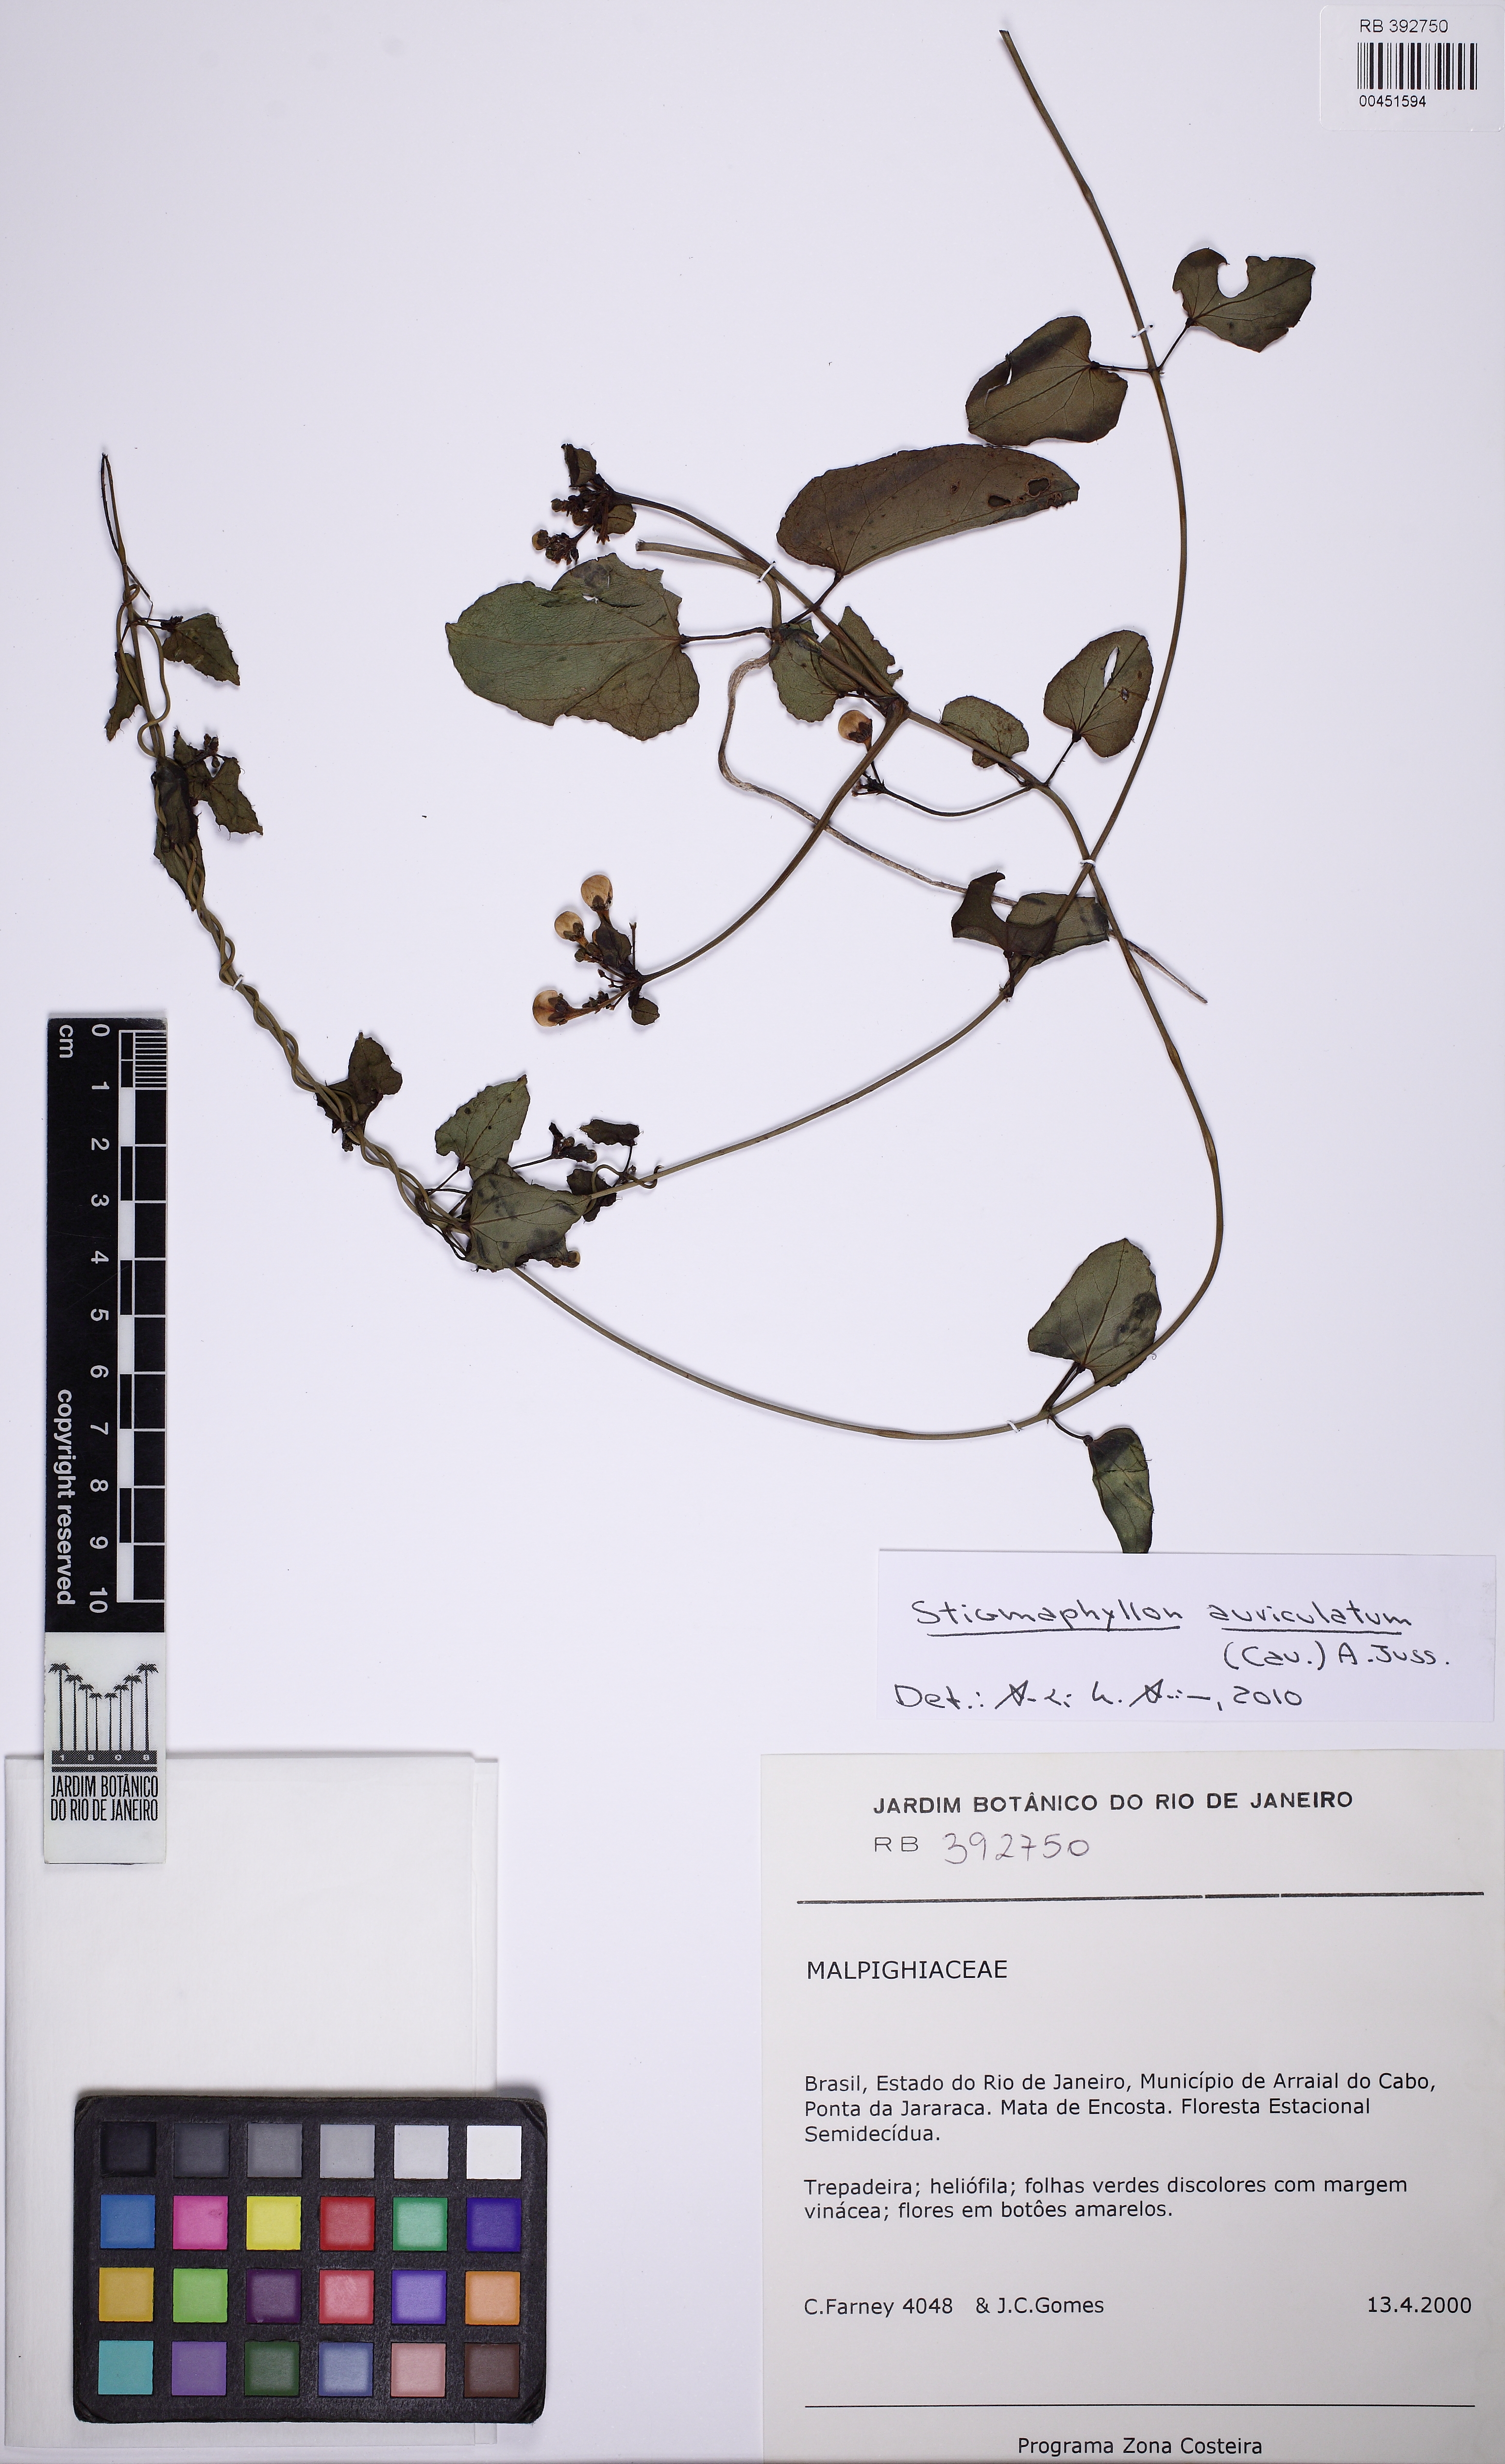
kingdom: Plantae
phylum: Tracheophyta
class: Magnoliopsida
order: Malpighiales
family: Malpighiaceae
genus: Stigmaphyllon
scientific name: Stigmaphyllon auriculatum
